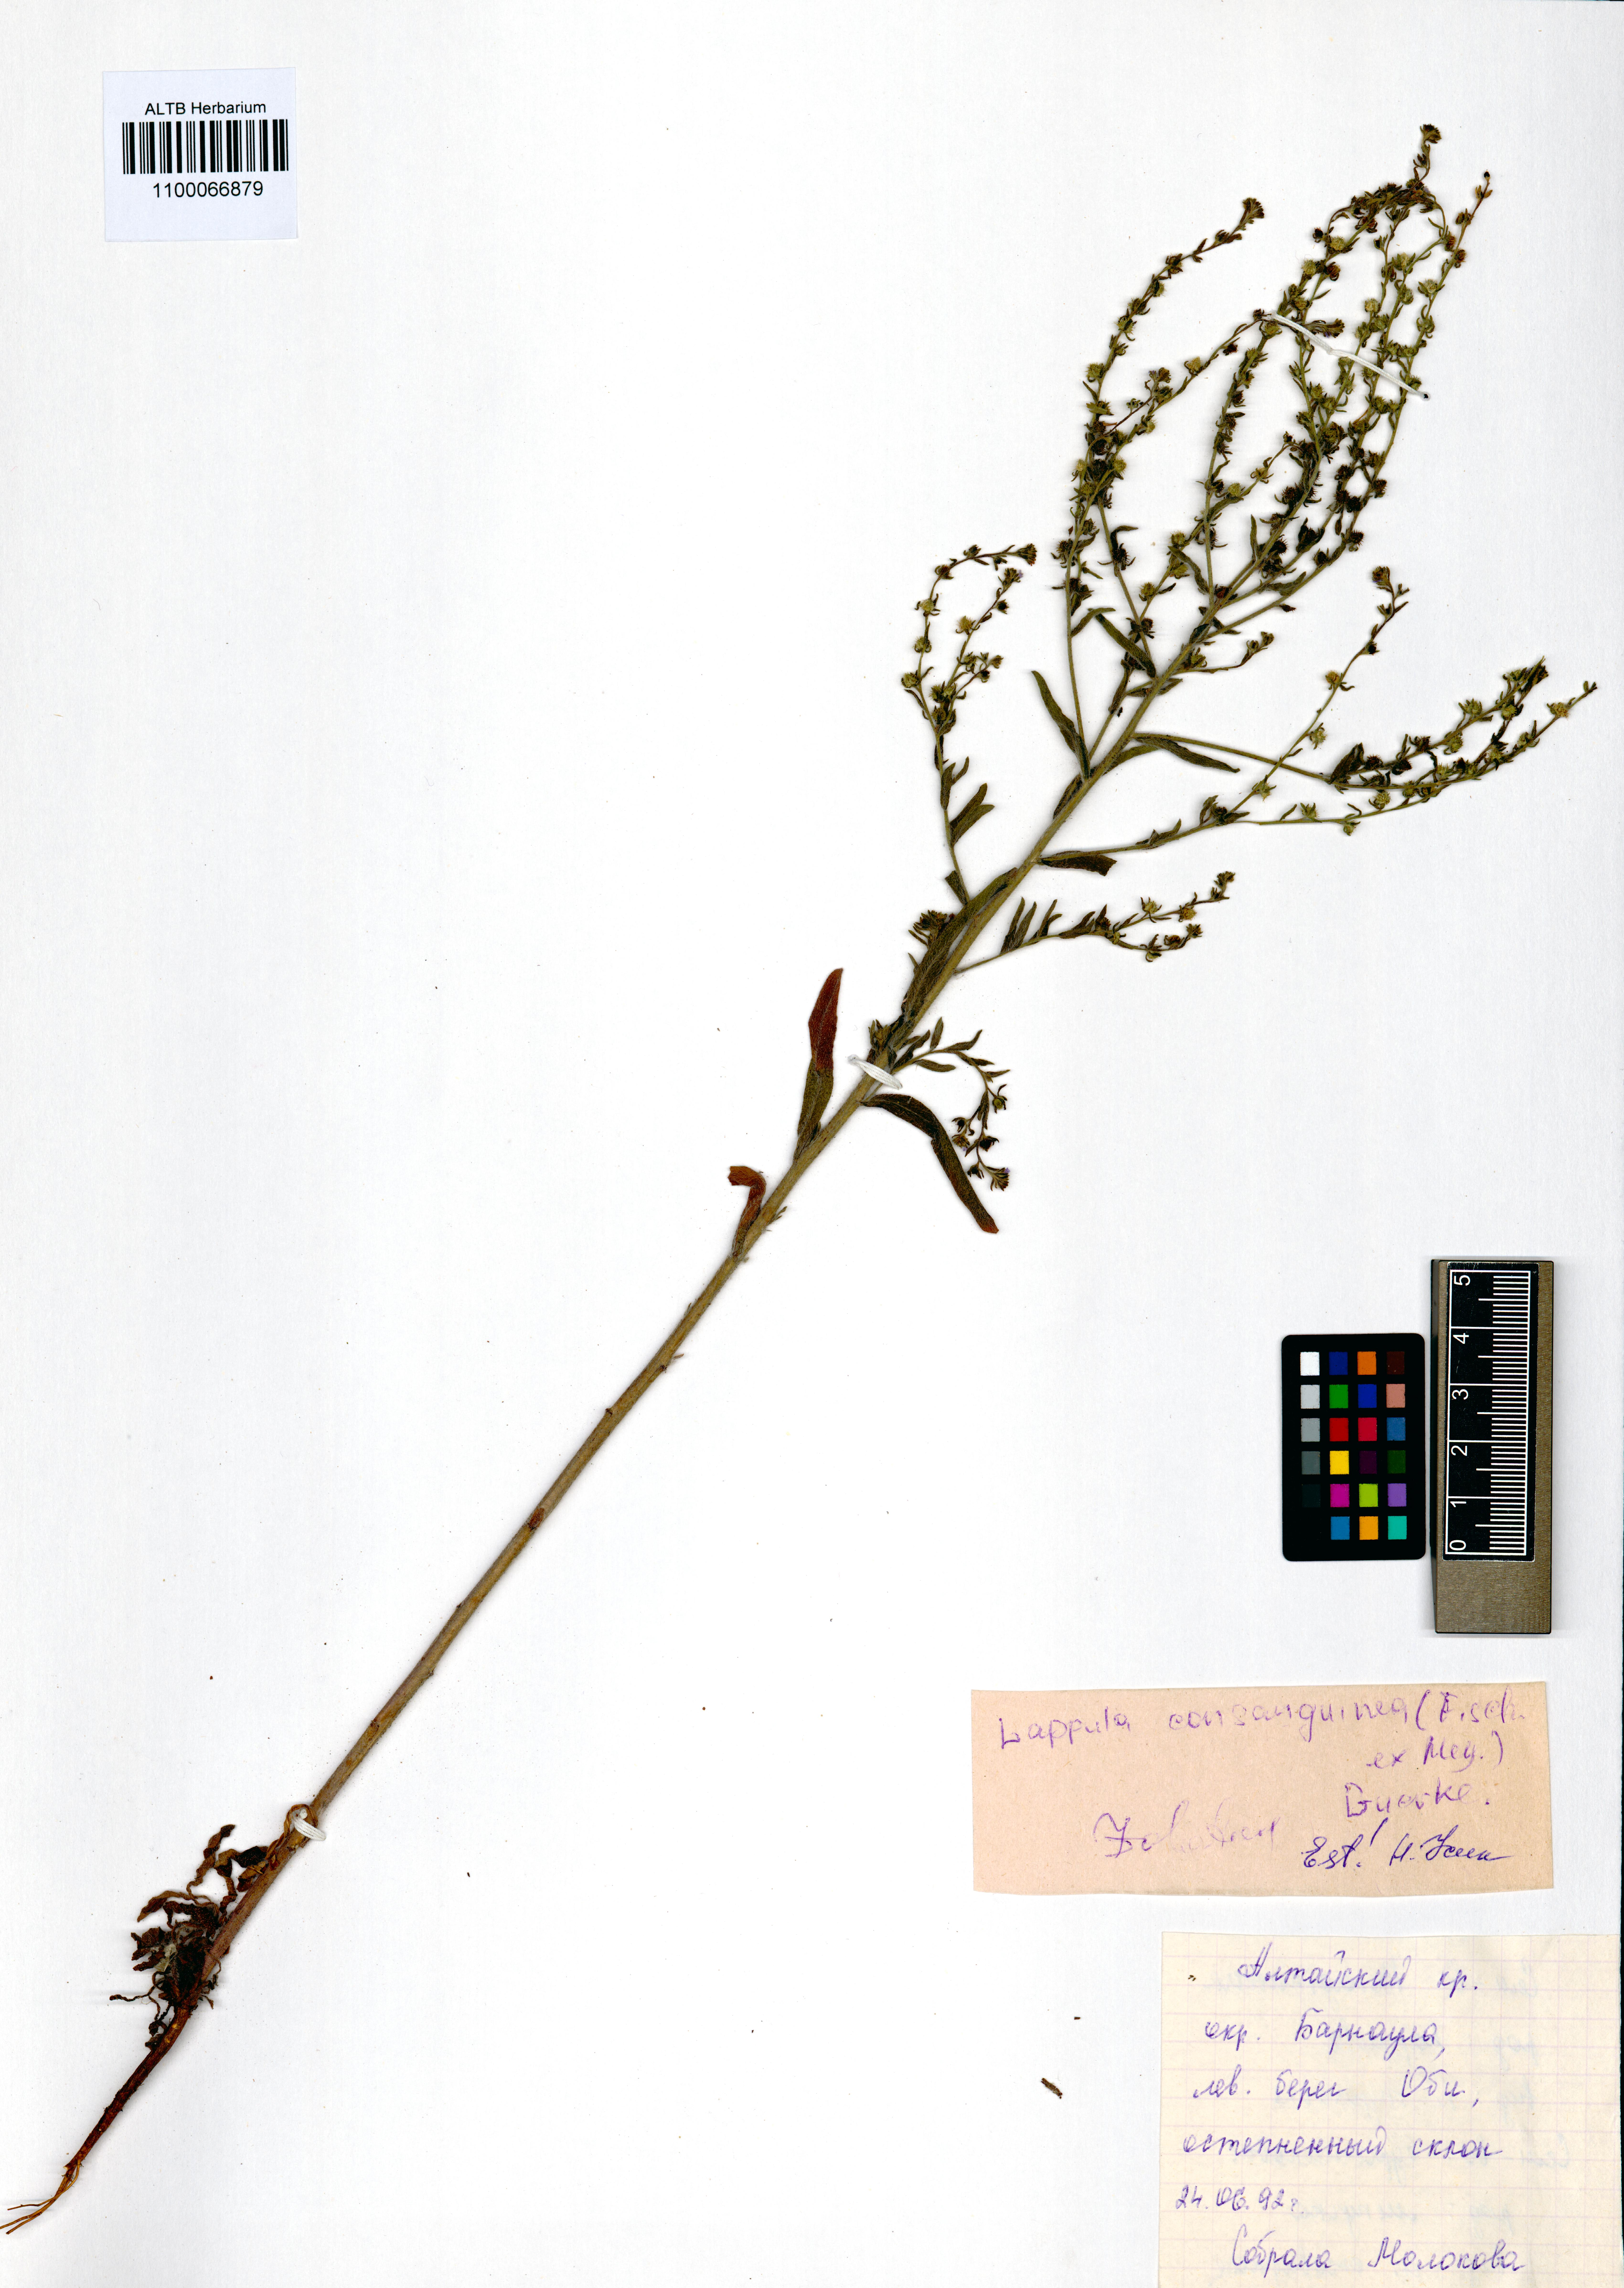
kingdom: Plantae
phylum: Tracheophyta
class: Magnoliopsida
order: Boraginales
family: Boraginaceae
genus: Lappula
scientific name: Lappula squarrosa
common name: European stickseed
